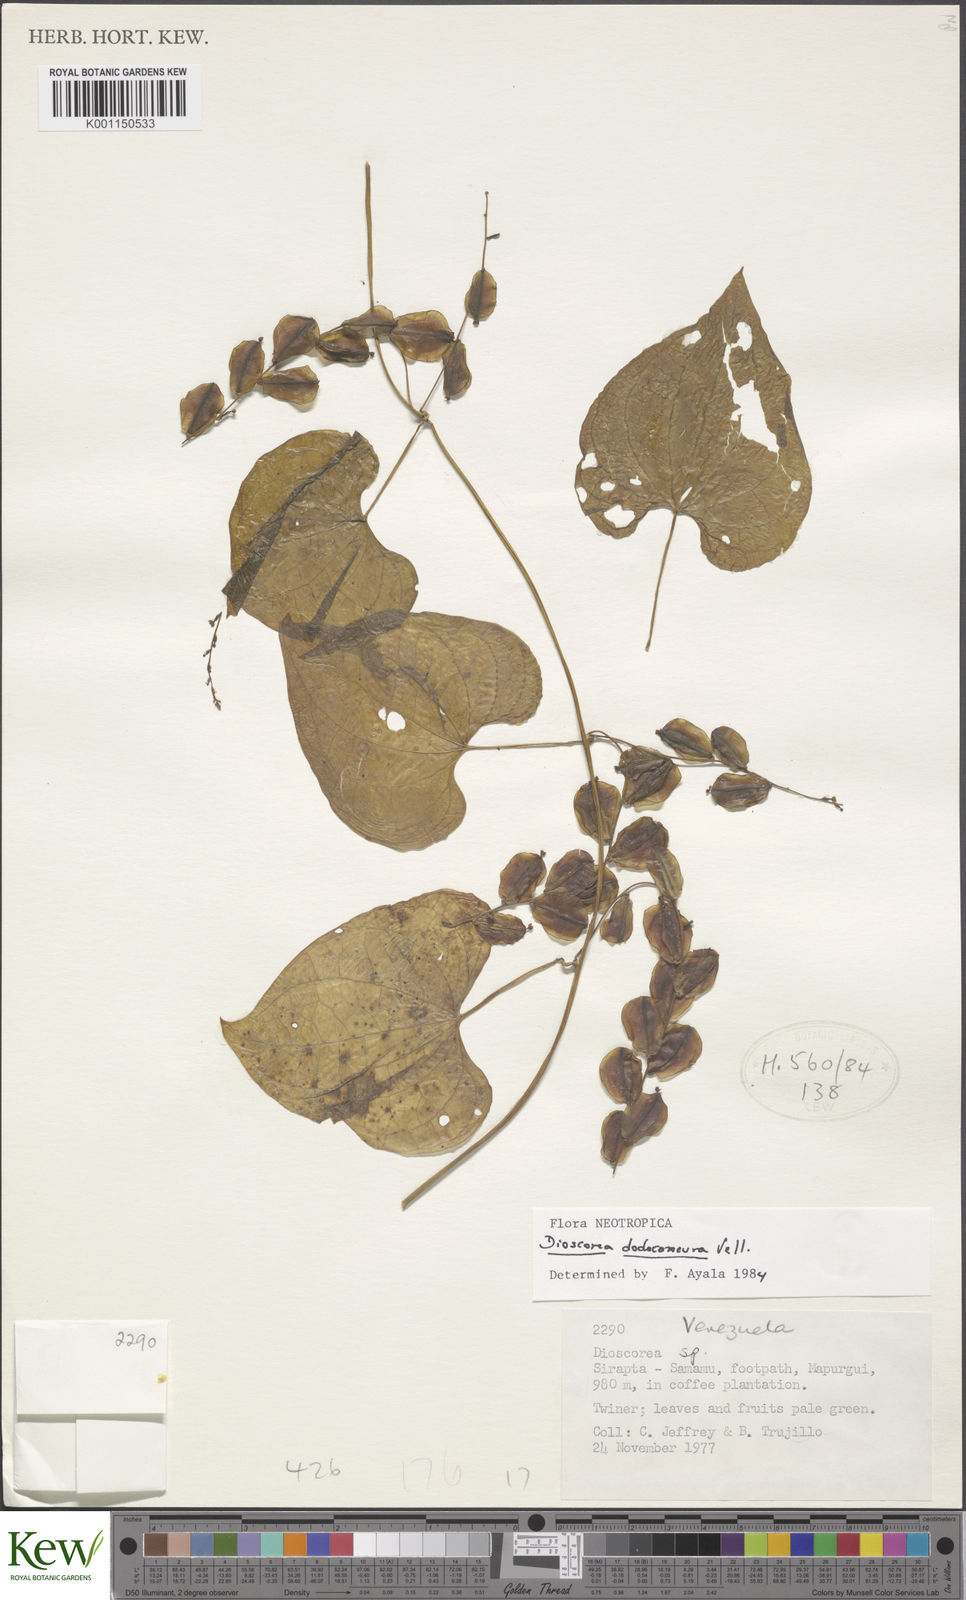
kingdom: Plantae
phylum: Tracheophyta
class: Liliopsida
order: Dioscoreales
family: Dioscoreaceae
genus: Dioscorea
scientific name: Dioscorea dodecaneura
